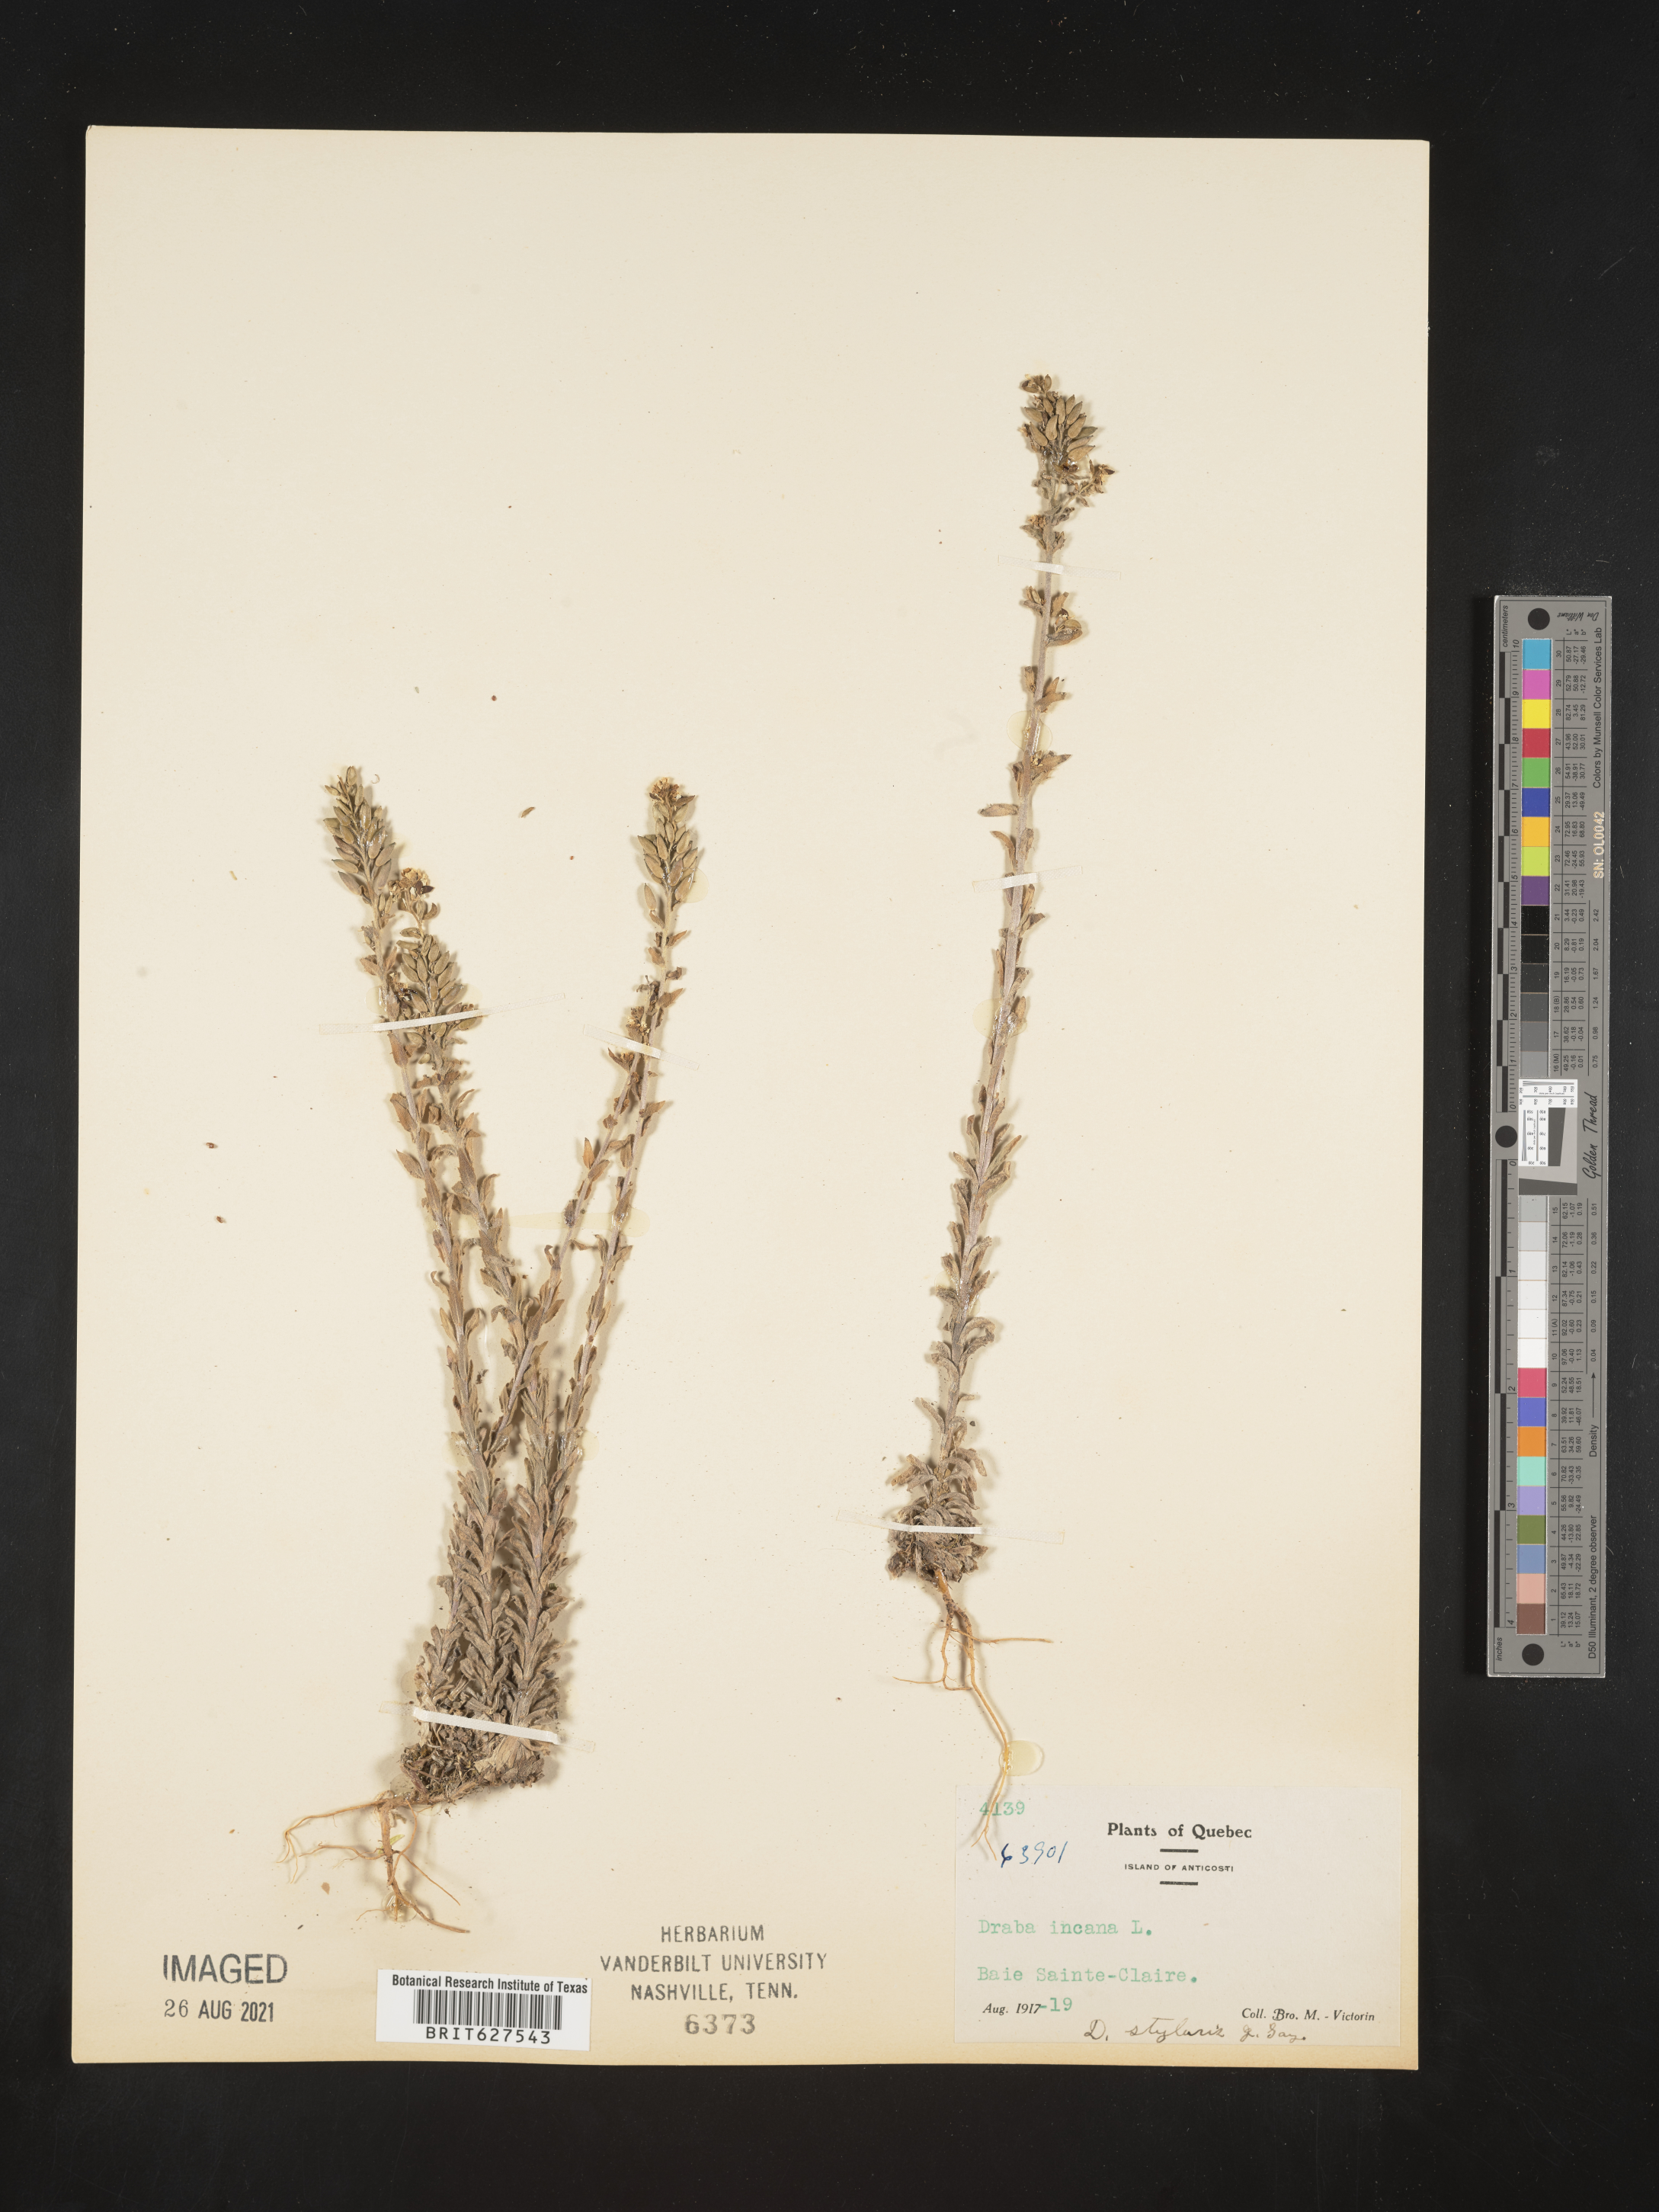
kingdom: Plantae
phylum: Tracheophyta
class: Magnoliopsida
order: Brassicales
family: Brassicaceae
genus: Draba
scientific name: Draba incana
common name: Hoary whitlow-grass
